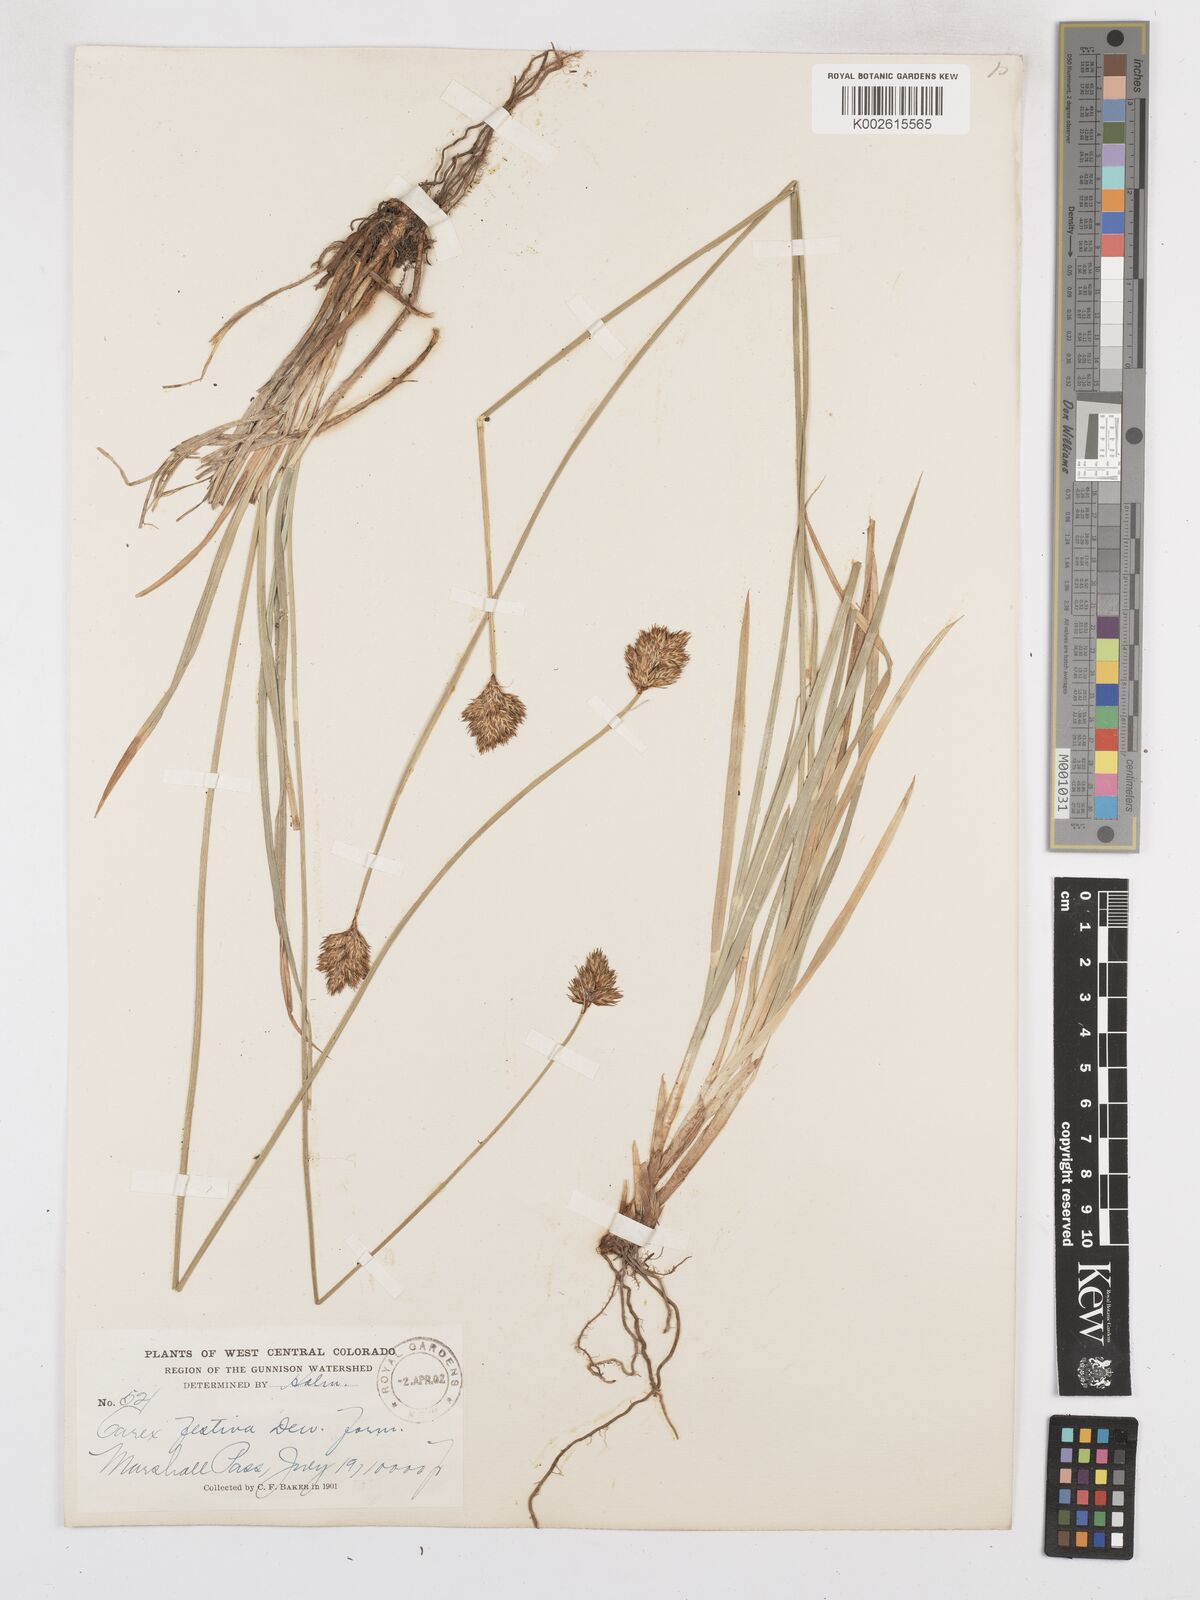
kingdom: Plantae
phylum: Tracheophyta
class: Liliopsida
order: Poales
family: Cyperaceae
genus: Carex
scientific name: Carex macloviana
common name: Falkland island sedge
